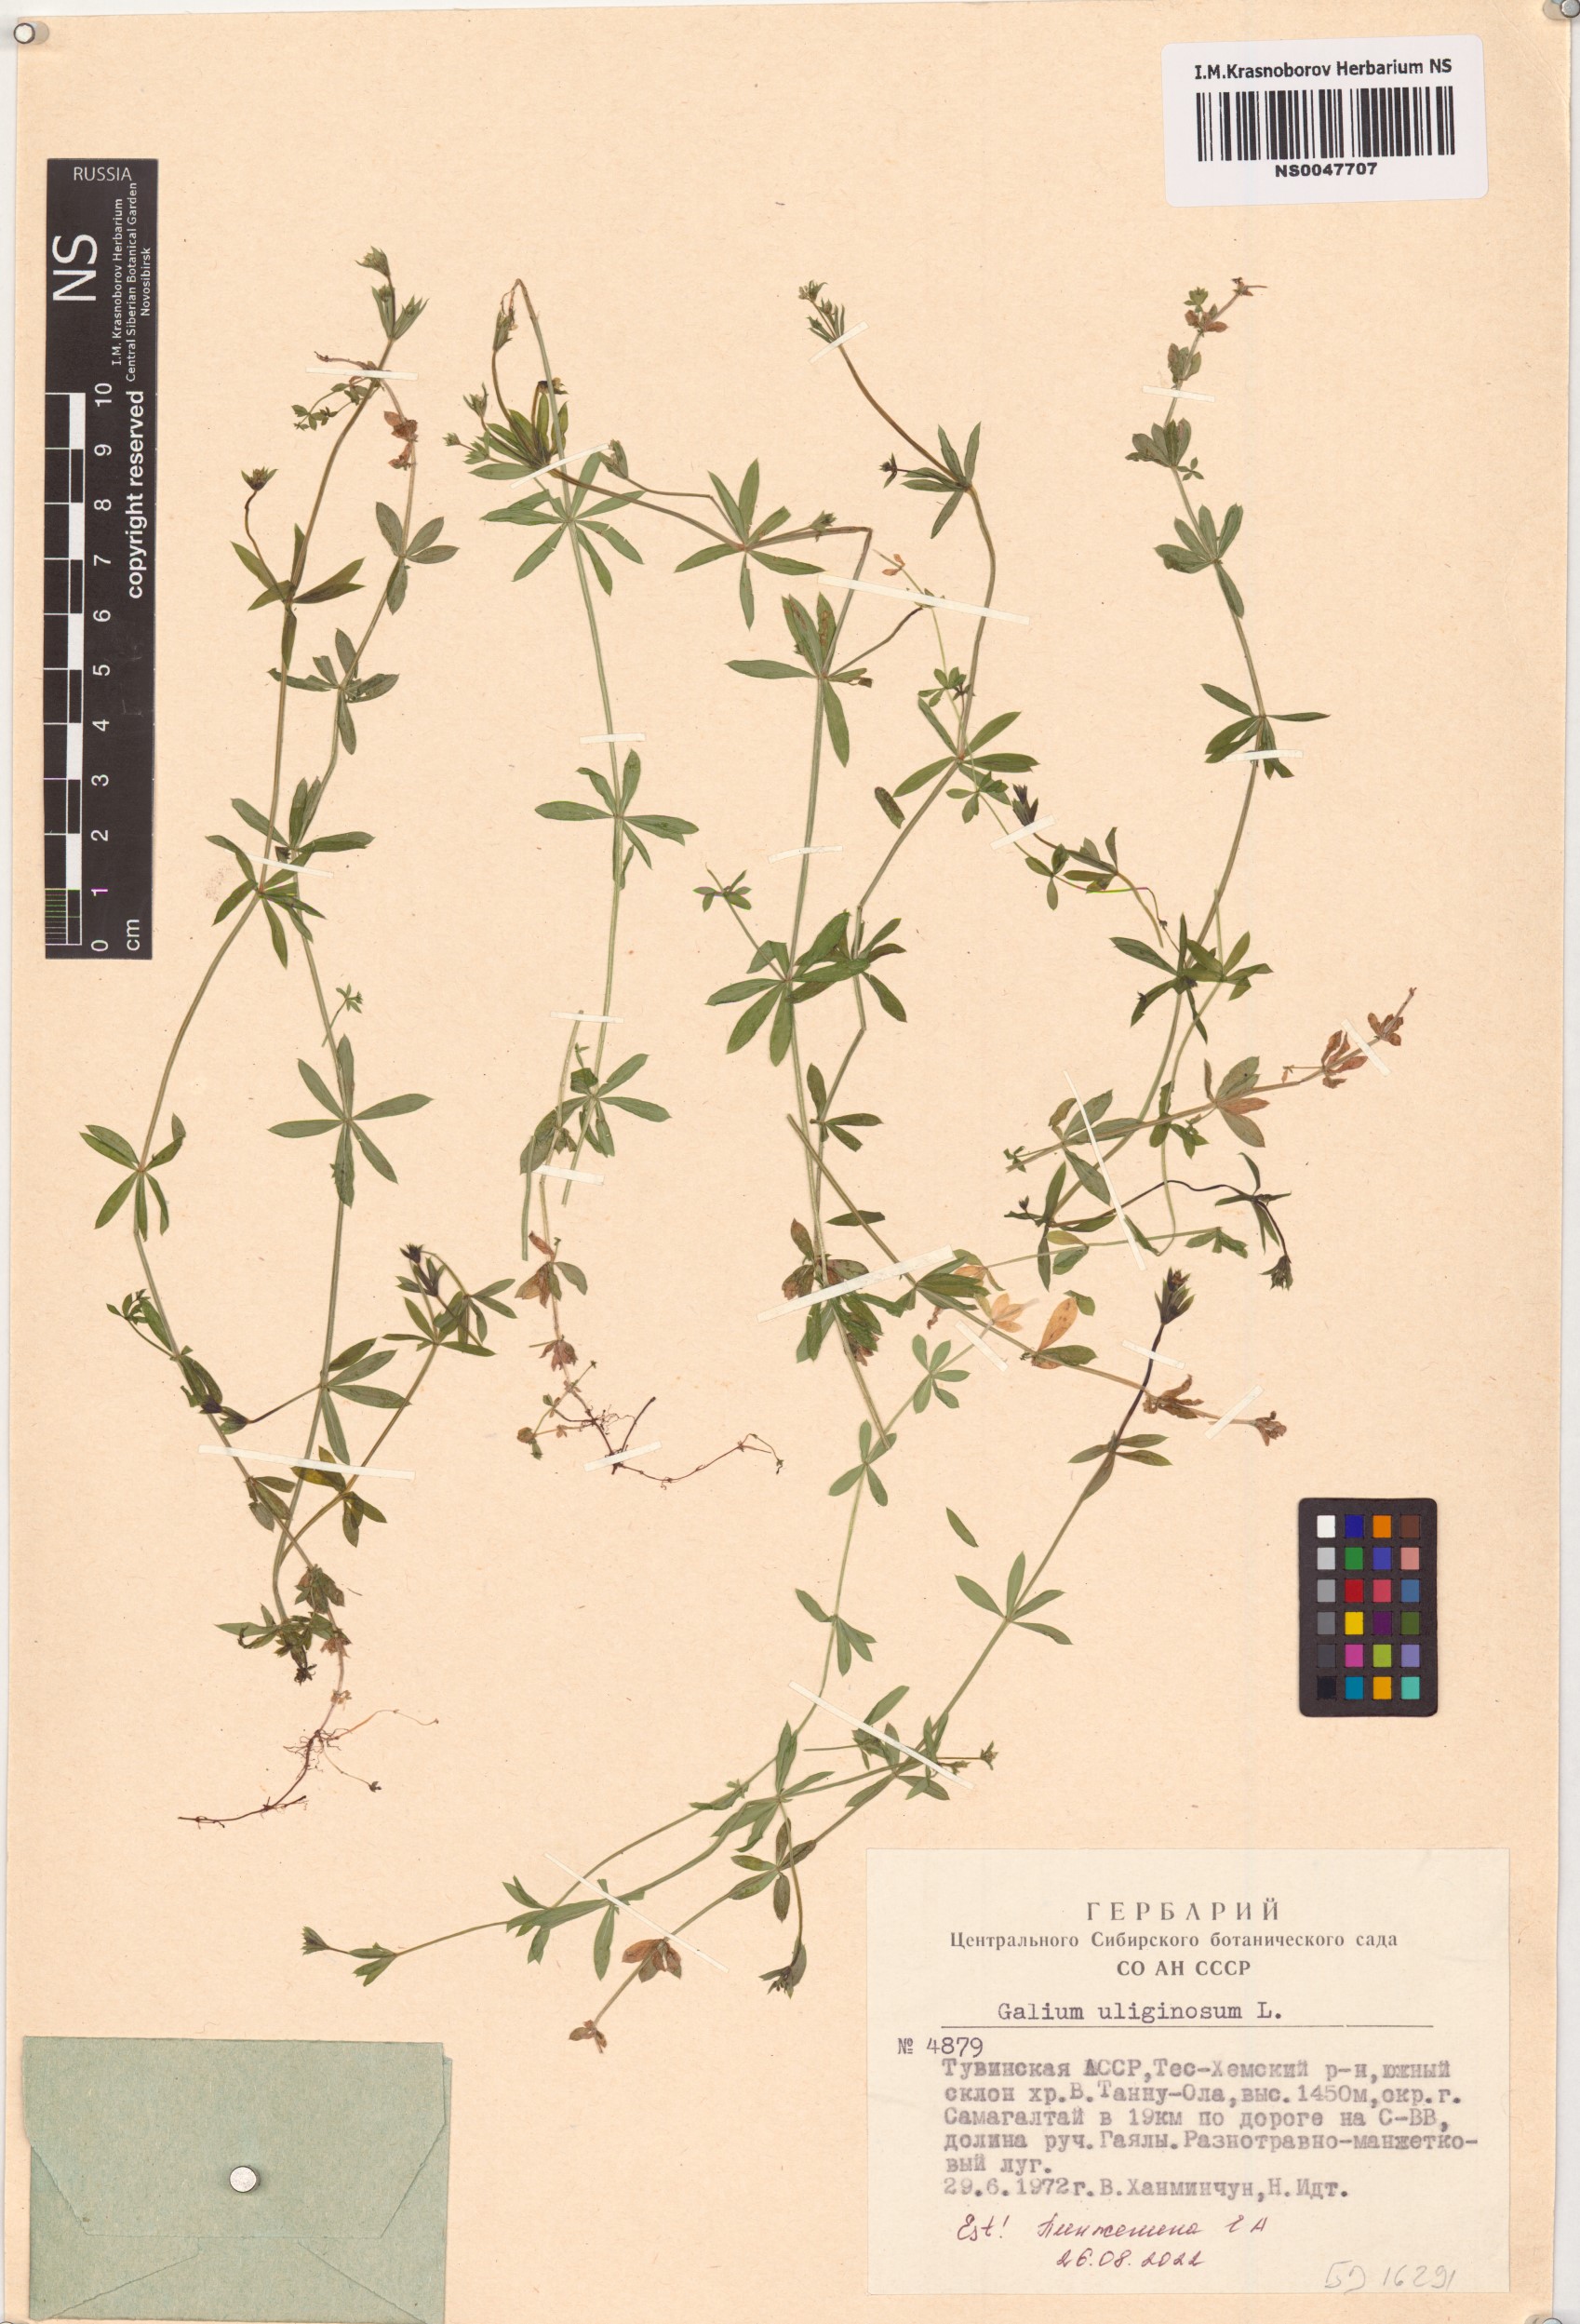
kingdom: Plantae
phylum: Tracheophyta
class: Magnoliopsida
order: Gentianales
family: Rubiaceae
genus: Galium
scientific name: Galium uliginosum
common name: Fen bedstraw
